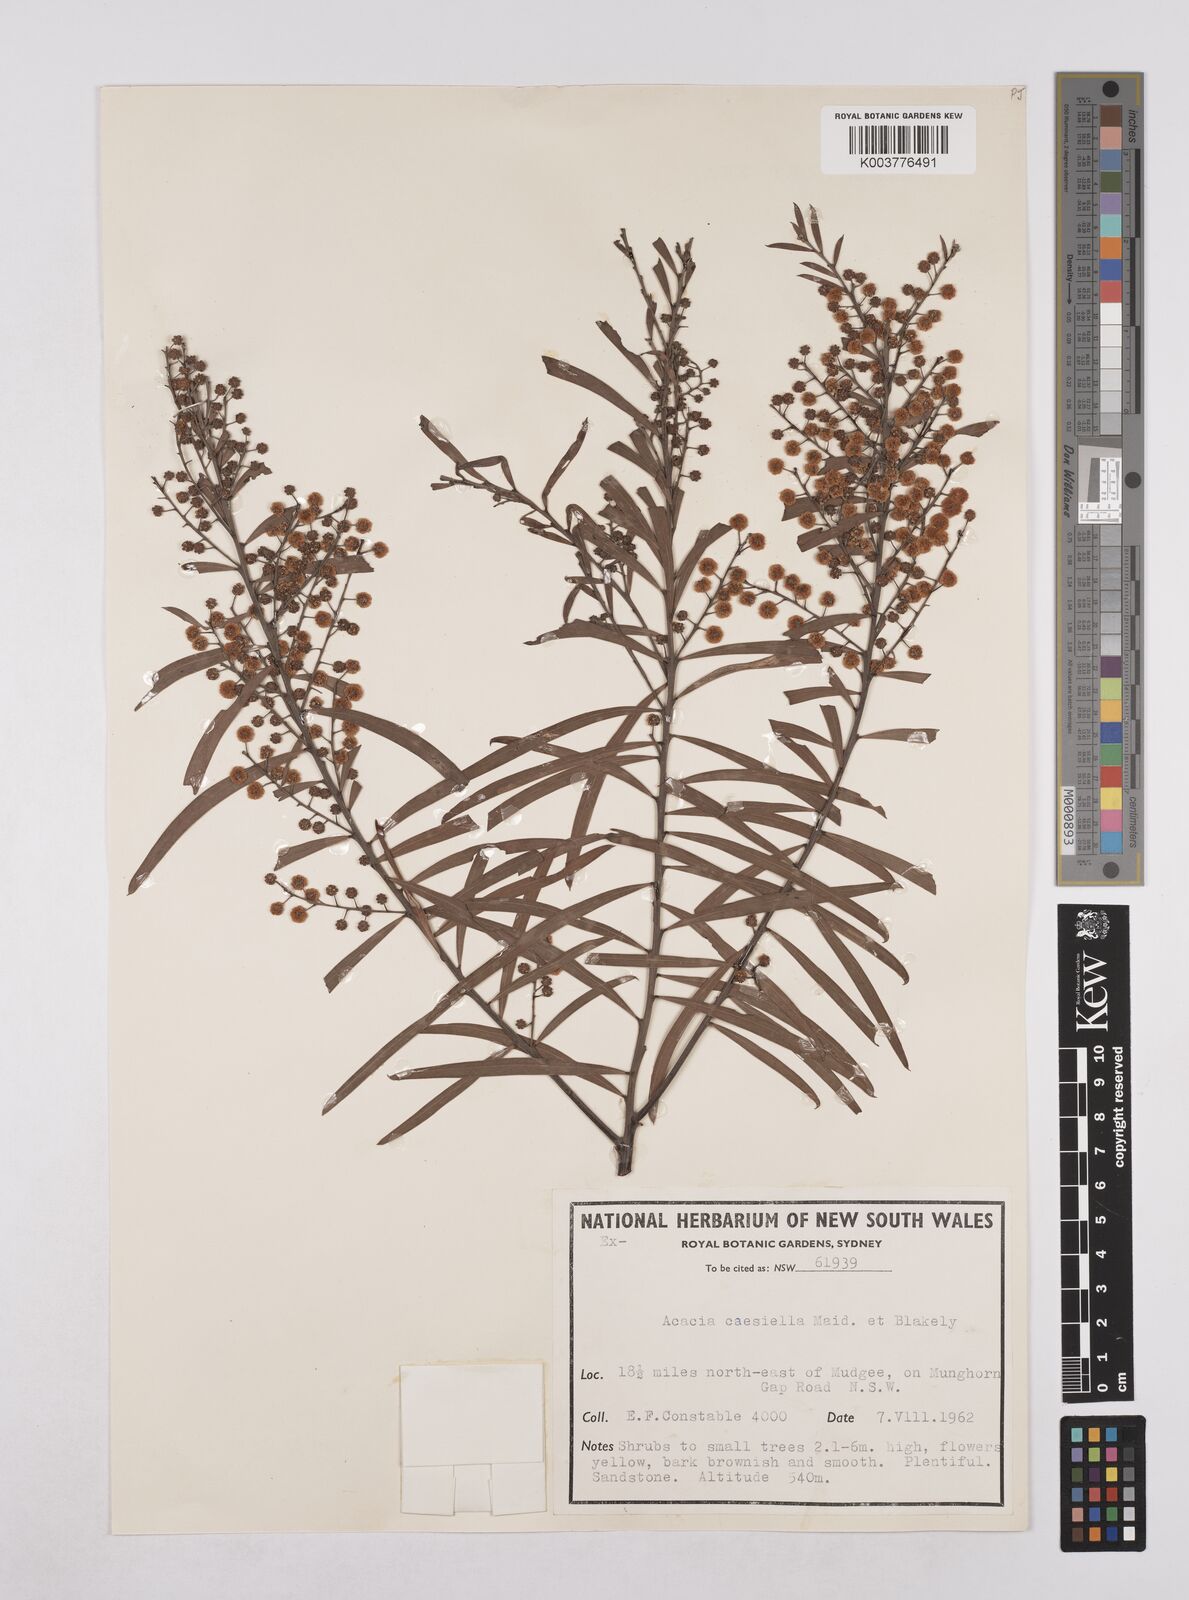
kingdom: Plantae
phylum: Tracheophyta
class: Magnoliopsida
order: Fabales
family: Fabaceae
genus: Acacia
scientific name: Acacia caesiella
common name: Tableland wattle
